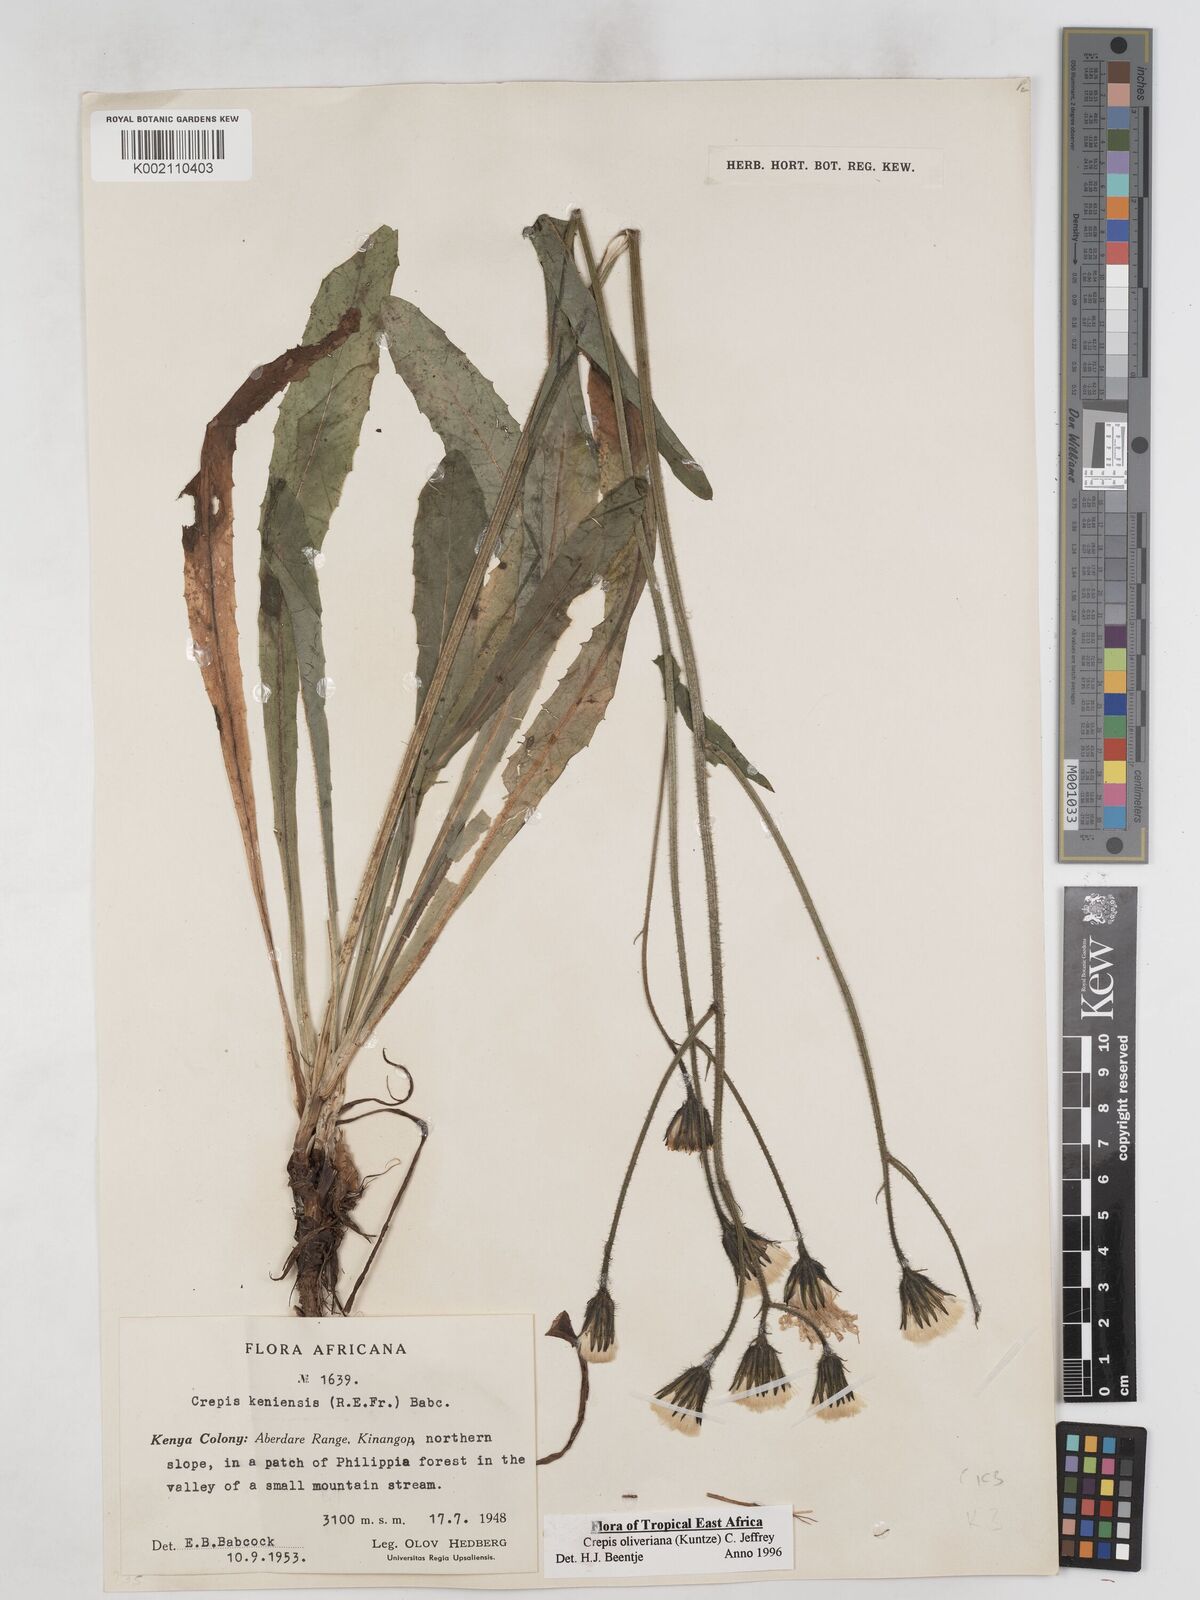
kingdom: Plantae
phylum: Tracheophyta
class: Magnoliopsida
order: Asterales
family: Asteraceae
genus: Crepis
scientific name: Crepis hypochoeridea
